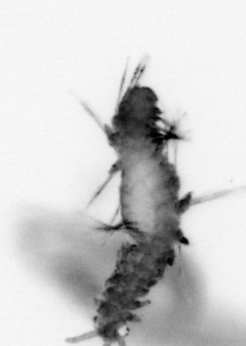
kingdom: Animalia
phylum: Annelida
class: Polychaeta
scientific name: Polychaeta
